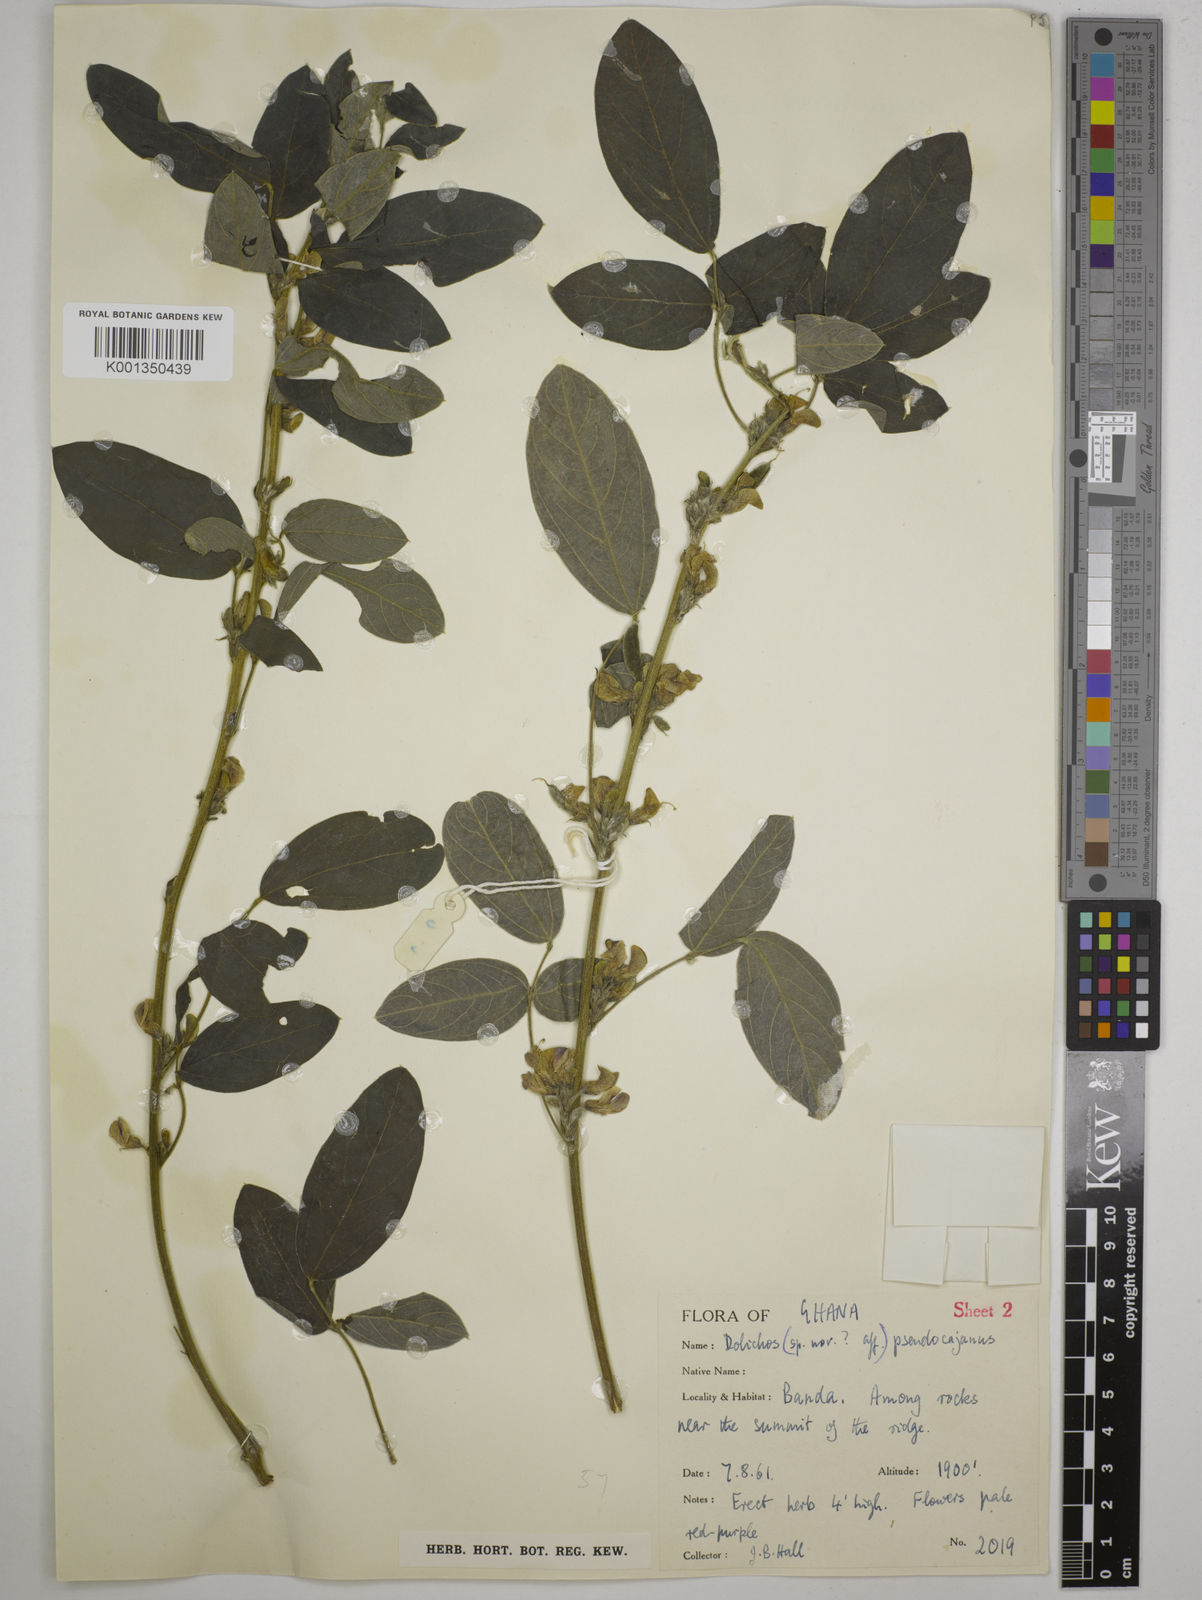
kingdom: Plantae
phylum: Tracheophyta
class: Magnoliopsida
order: Fabales
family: Fabaceae
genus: Dolichos
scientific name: Dolichos pseudocajanus
